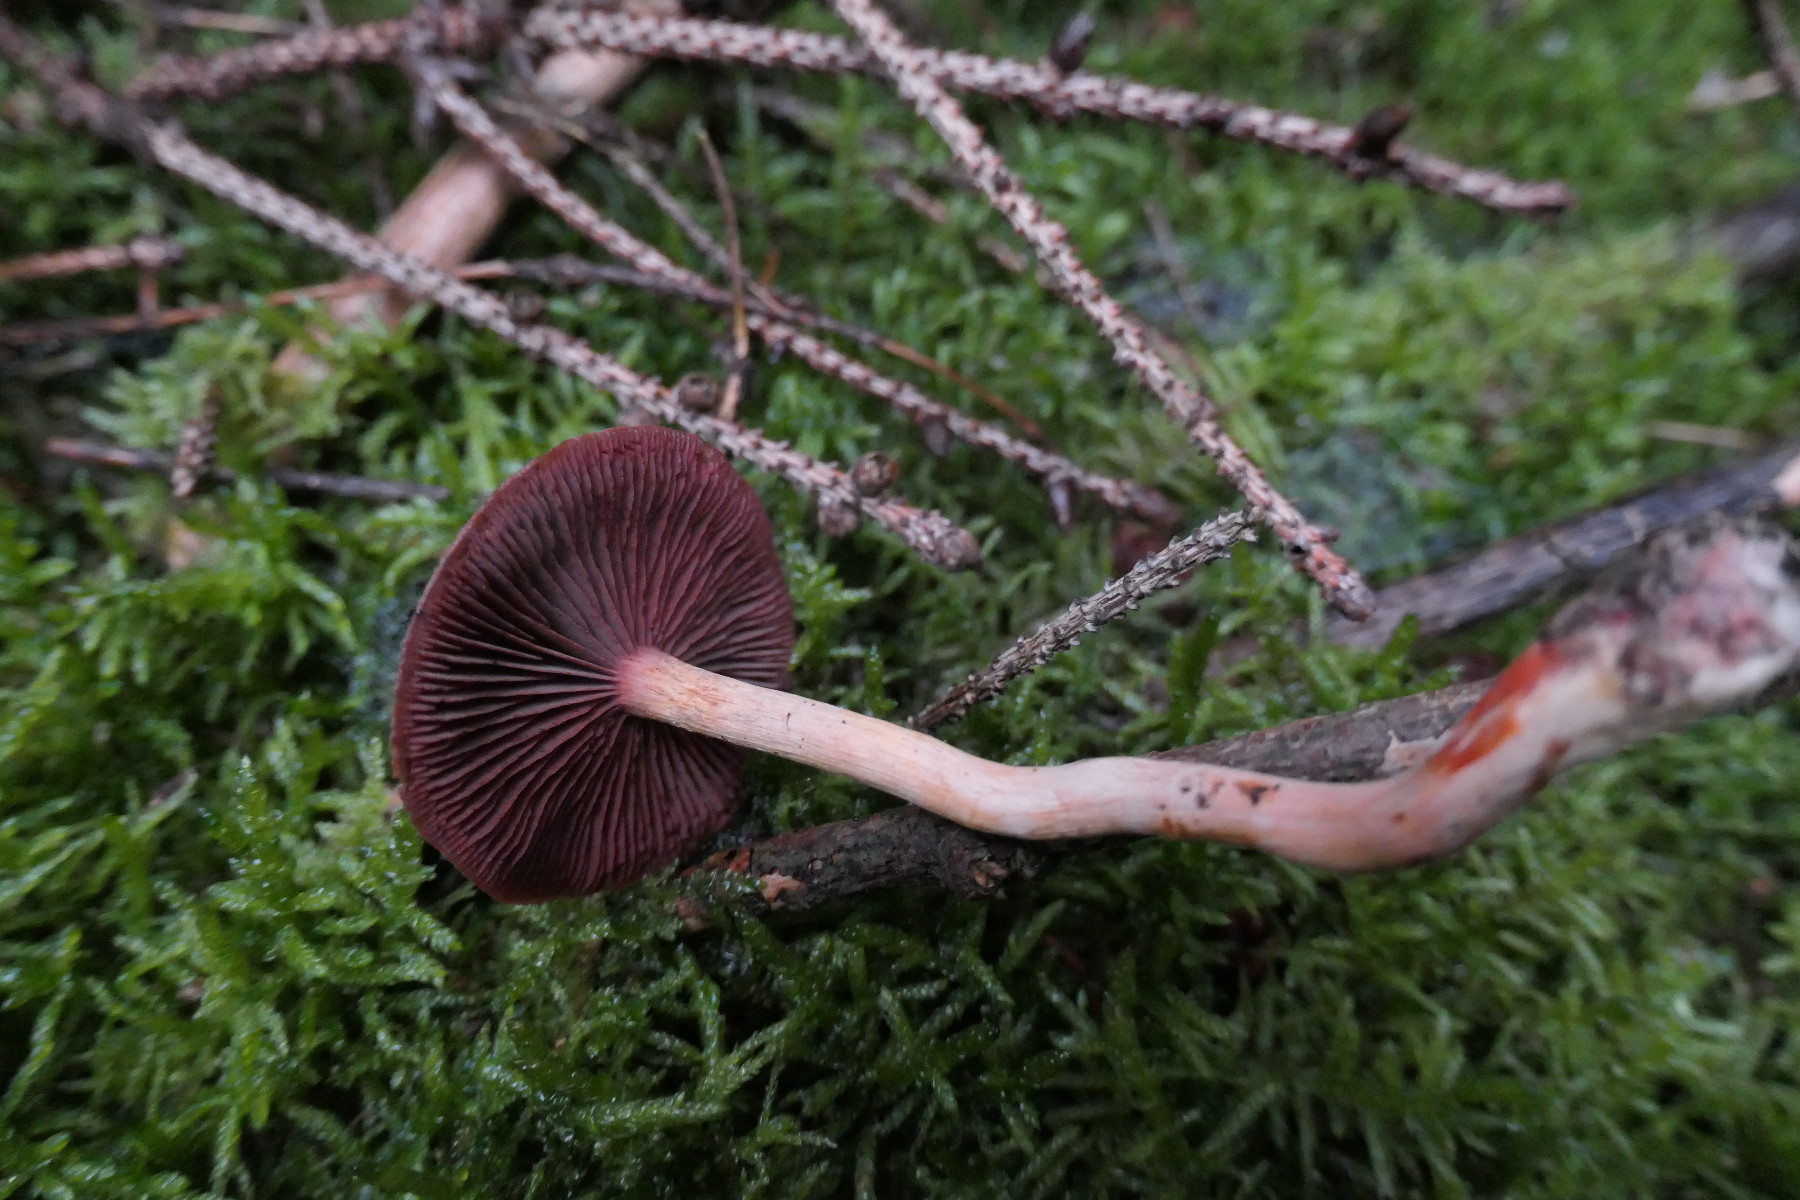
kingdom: Fungi
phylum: Basidiomycota
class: Agaricomycetes
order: Agaricales
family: Cortinariaceae
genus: Cortinarius
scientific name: Cortinarius
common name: cinnoberbladet slørhat
